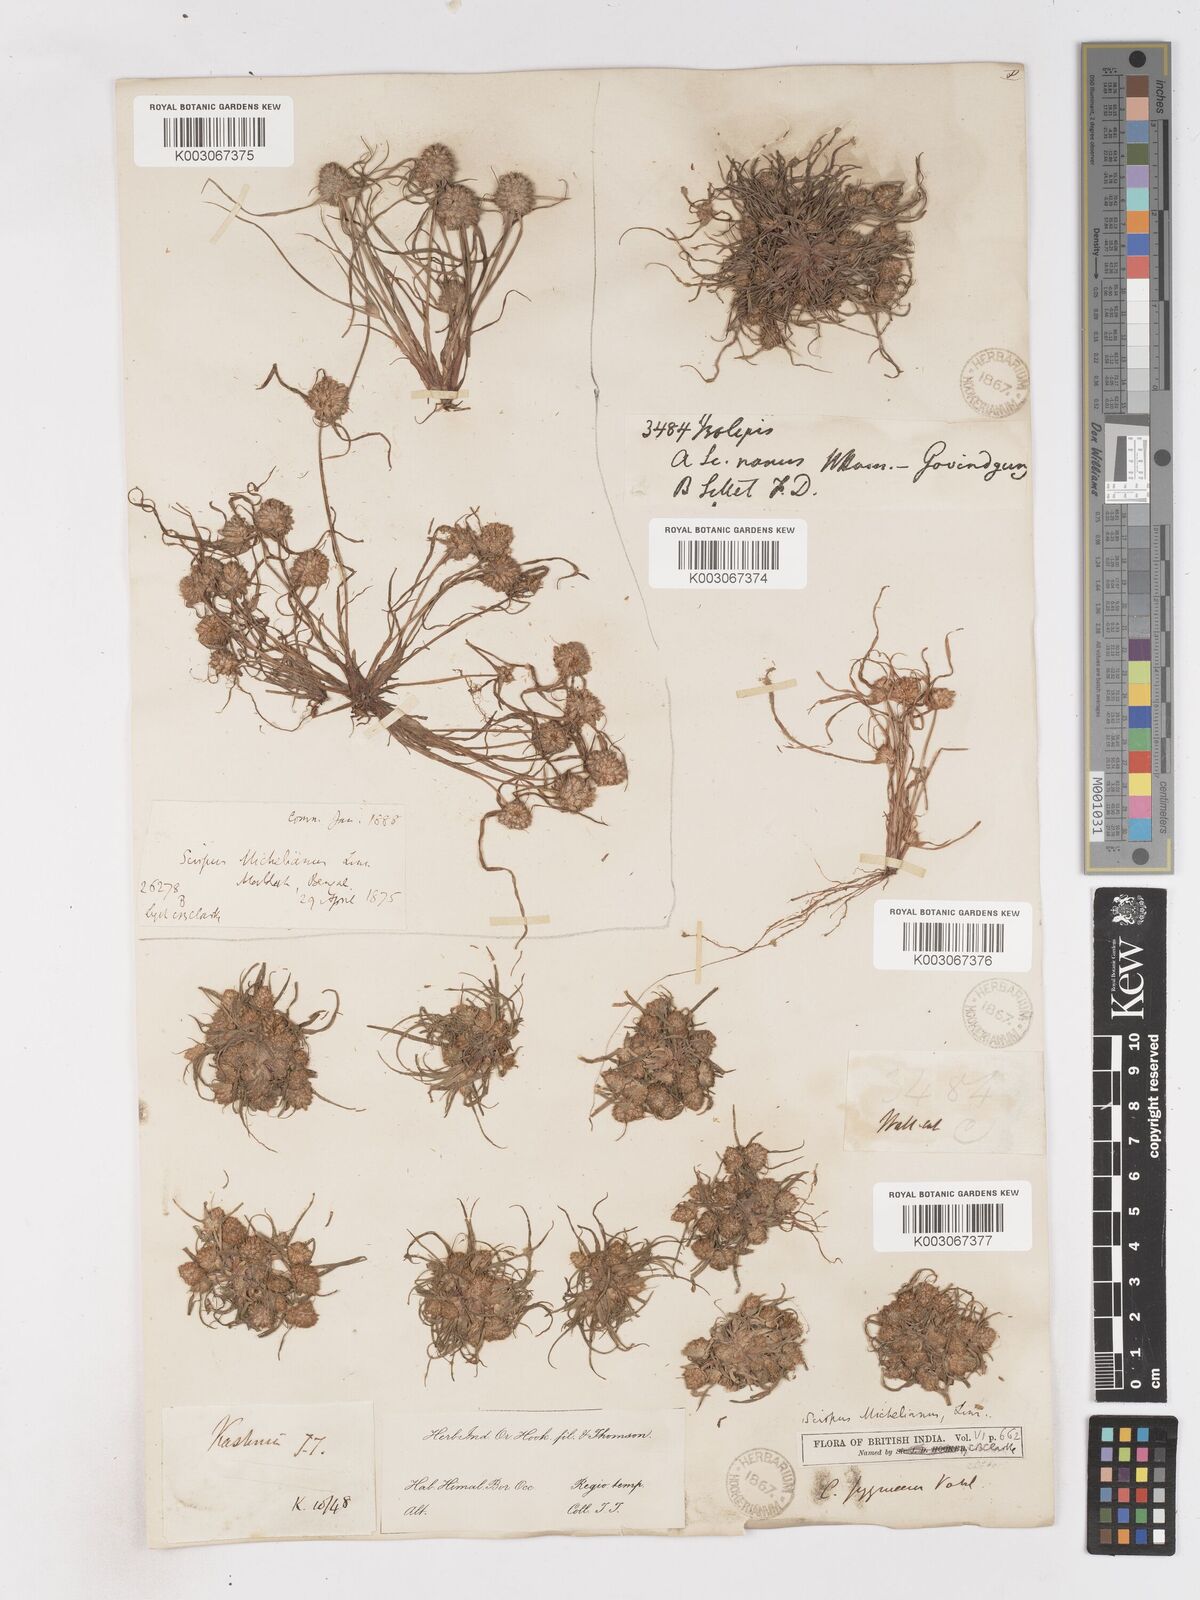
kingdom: Plantae
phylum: Tracheophyta
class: Liliopsida
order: Poales
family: Cyperaceae
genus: Cyperus
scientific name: Cyperus michelianus
